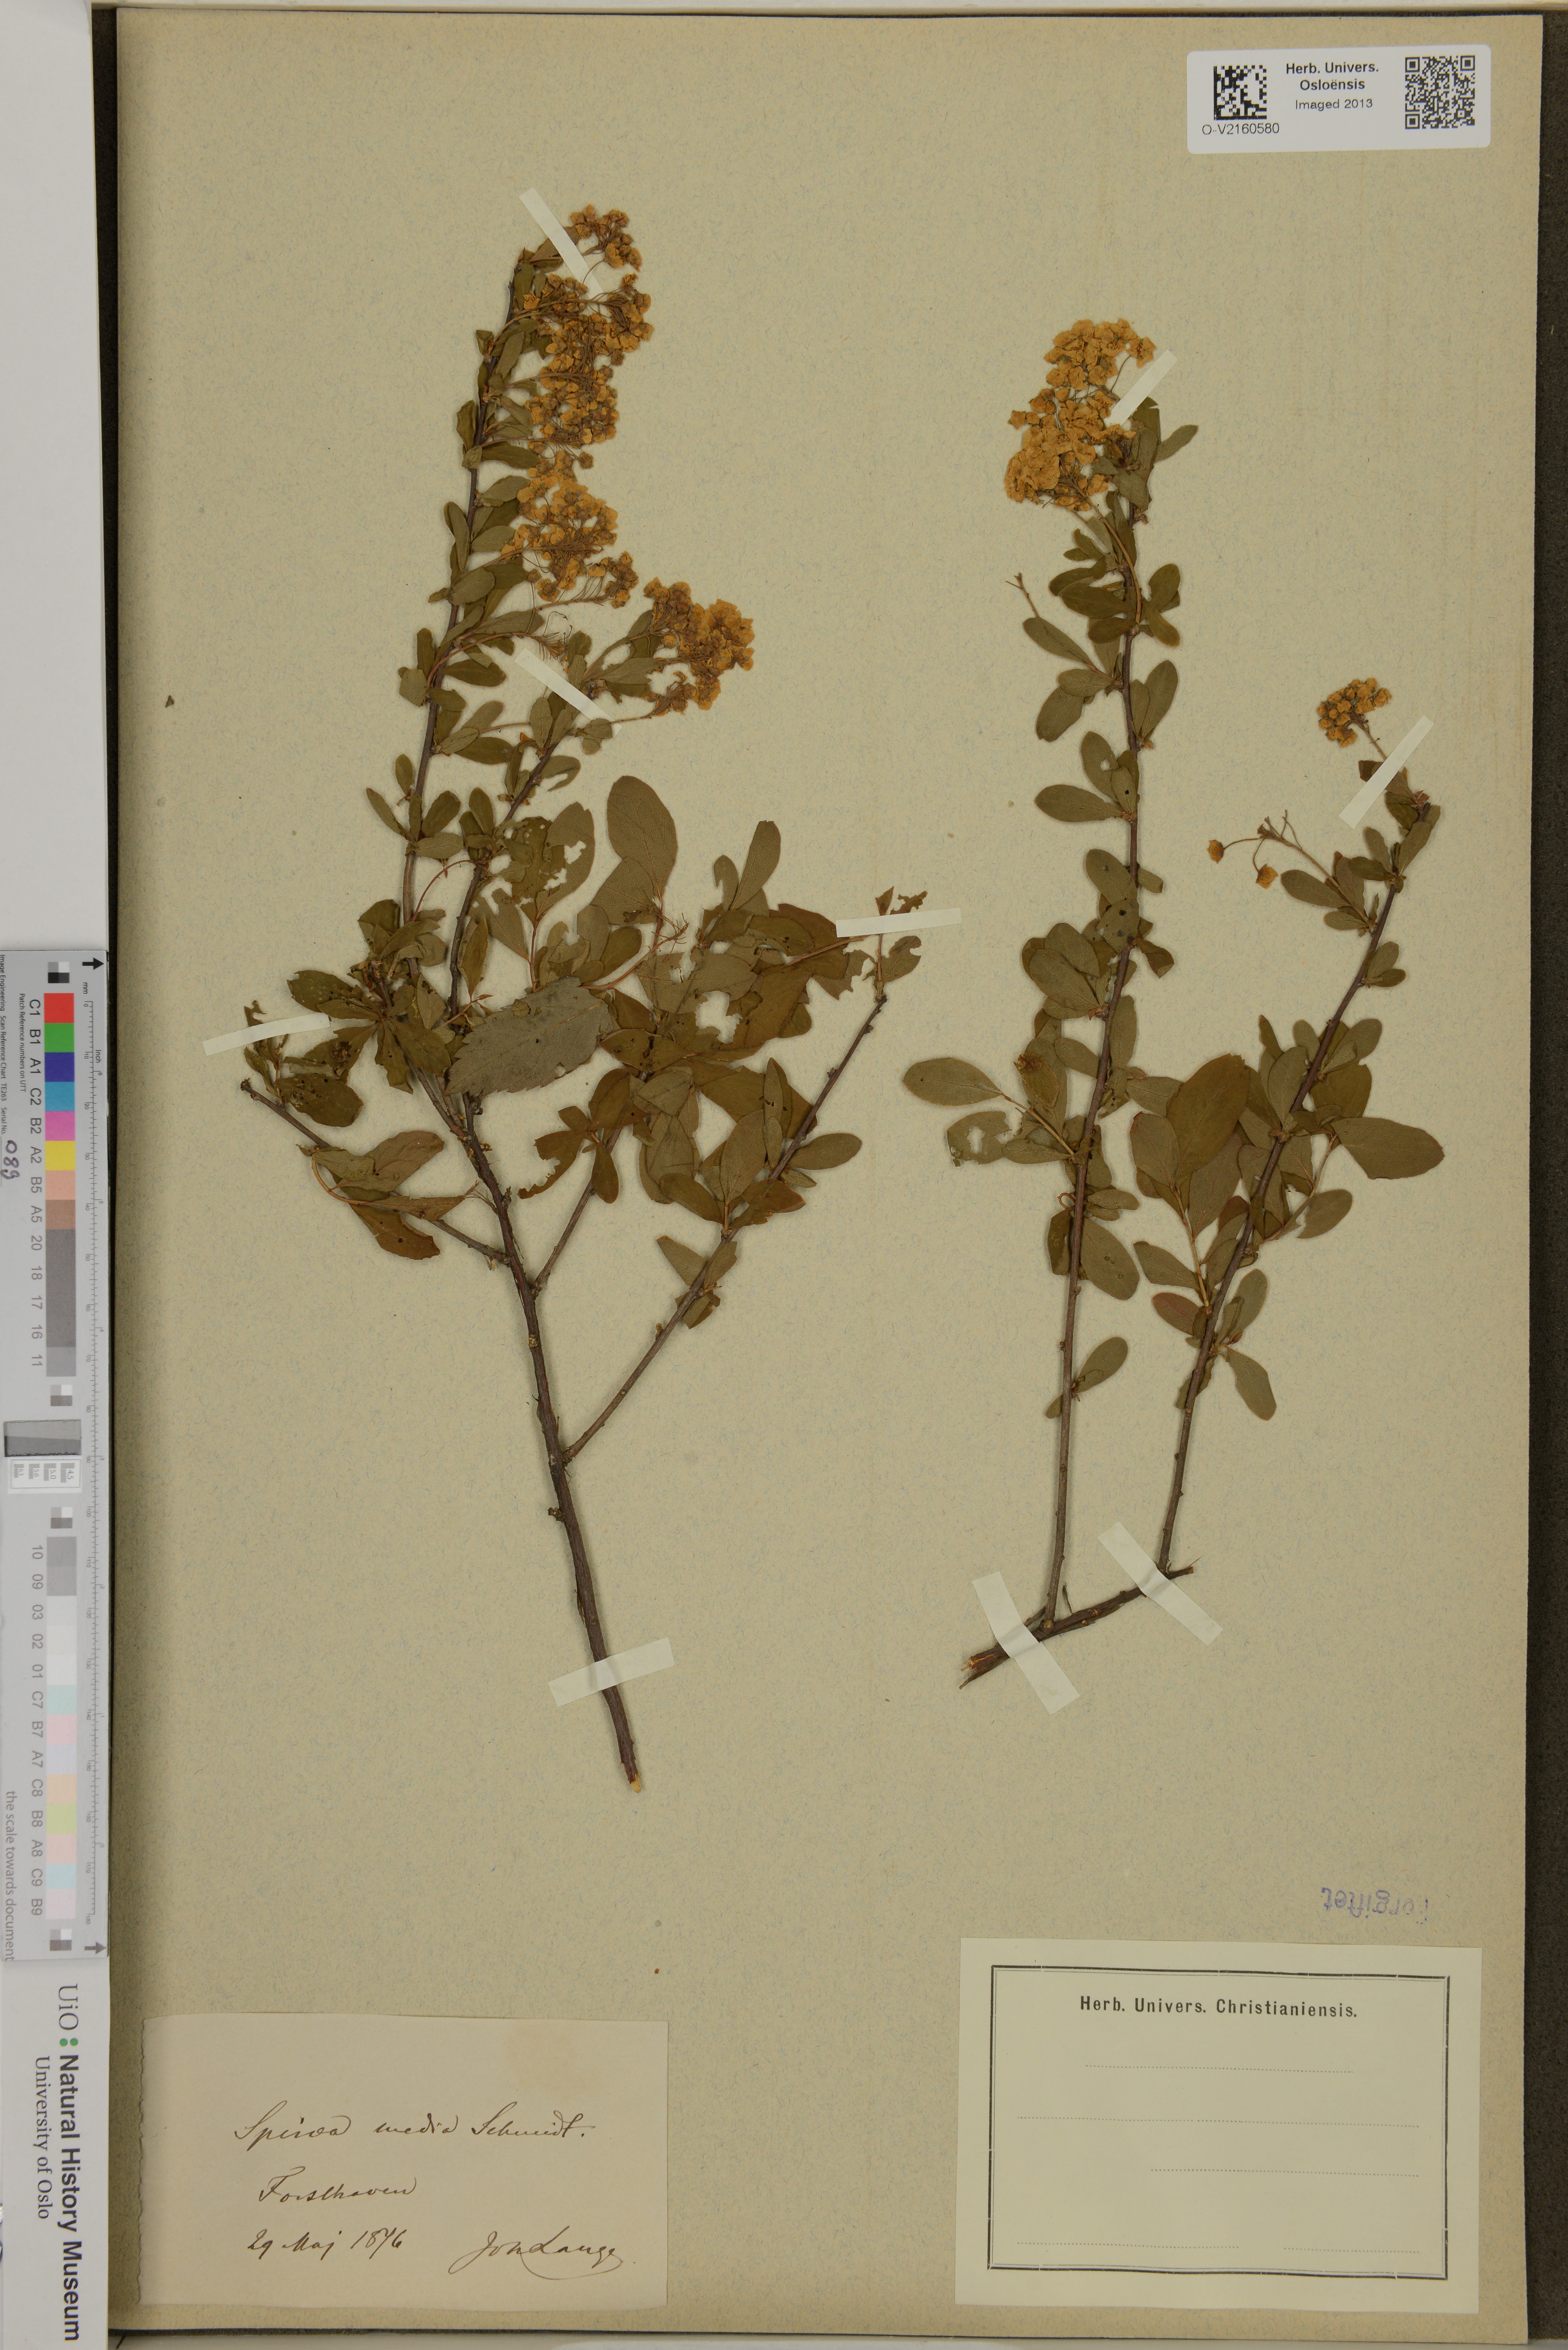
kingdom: Plantae
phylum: Tracheophyta
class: Magnoliopsida
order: Rosales
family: Rosaceae
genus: Spiraea
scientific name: Spiraea media
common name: Russian spiraea
